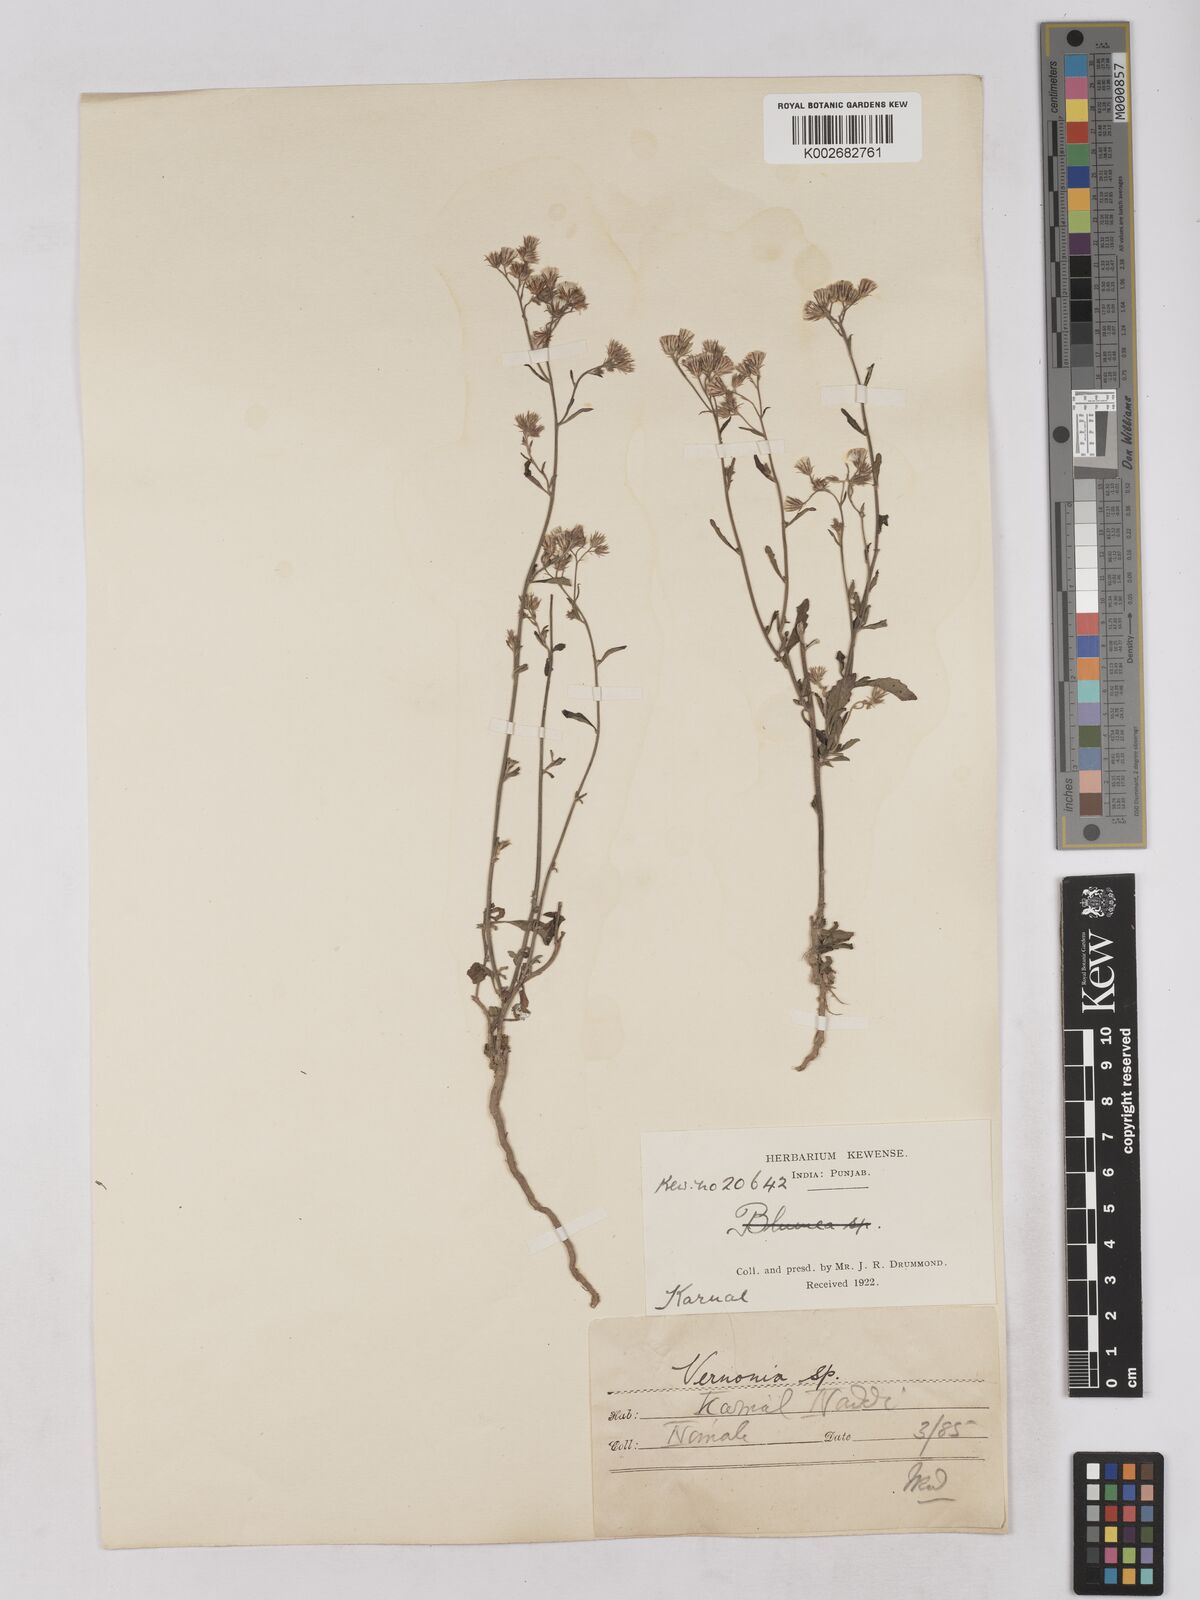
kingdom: Plantae
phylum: Tracheophyta
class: Magnoliopsida
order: Asterales
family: Asteraceae
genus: Cyanthillium
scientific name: Cyanthillium cinereum
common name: Little ironweed
